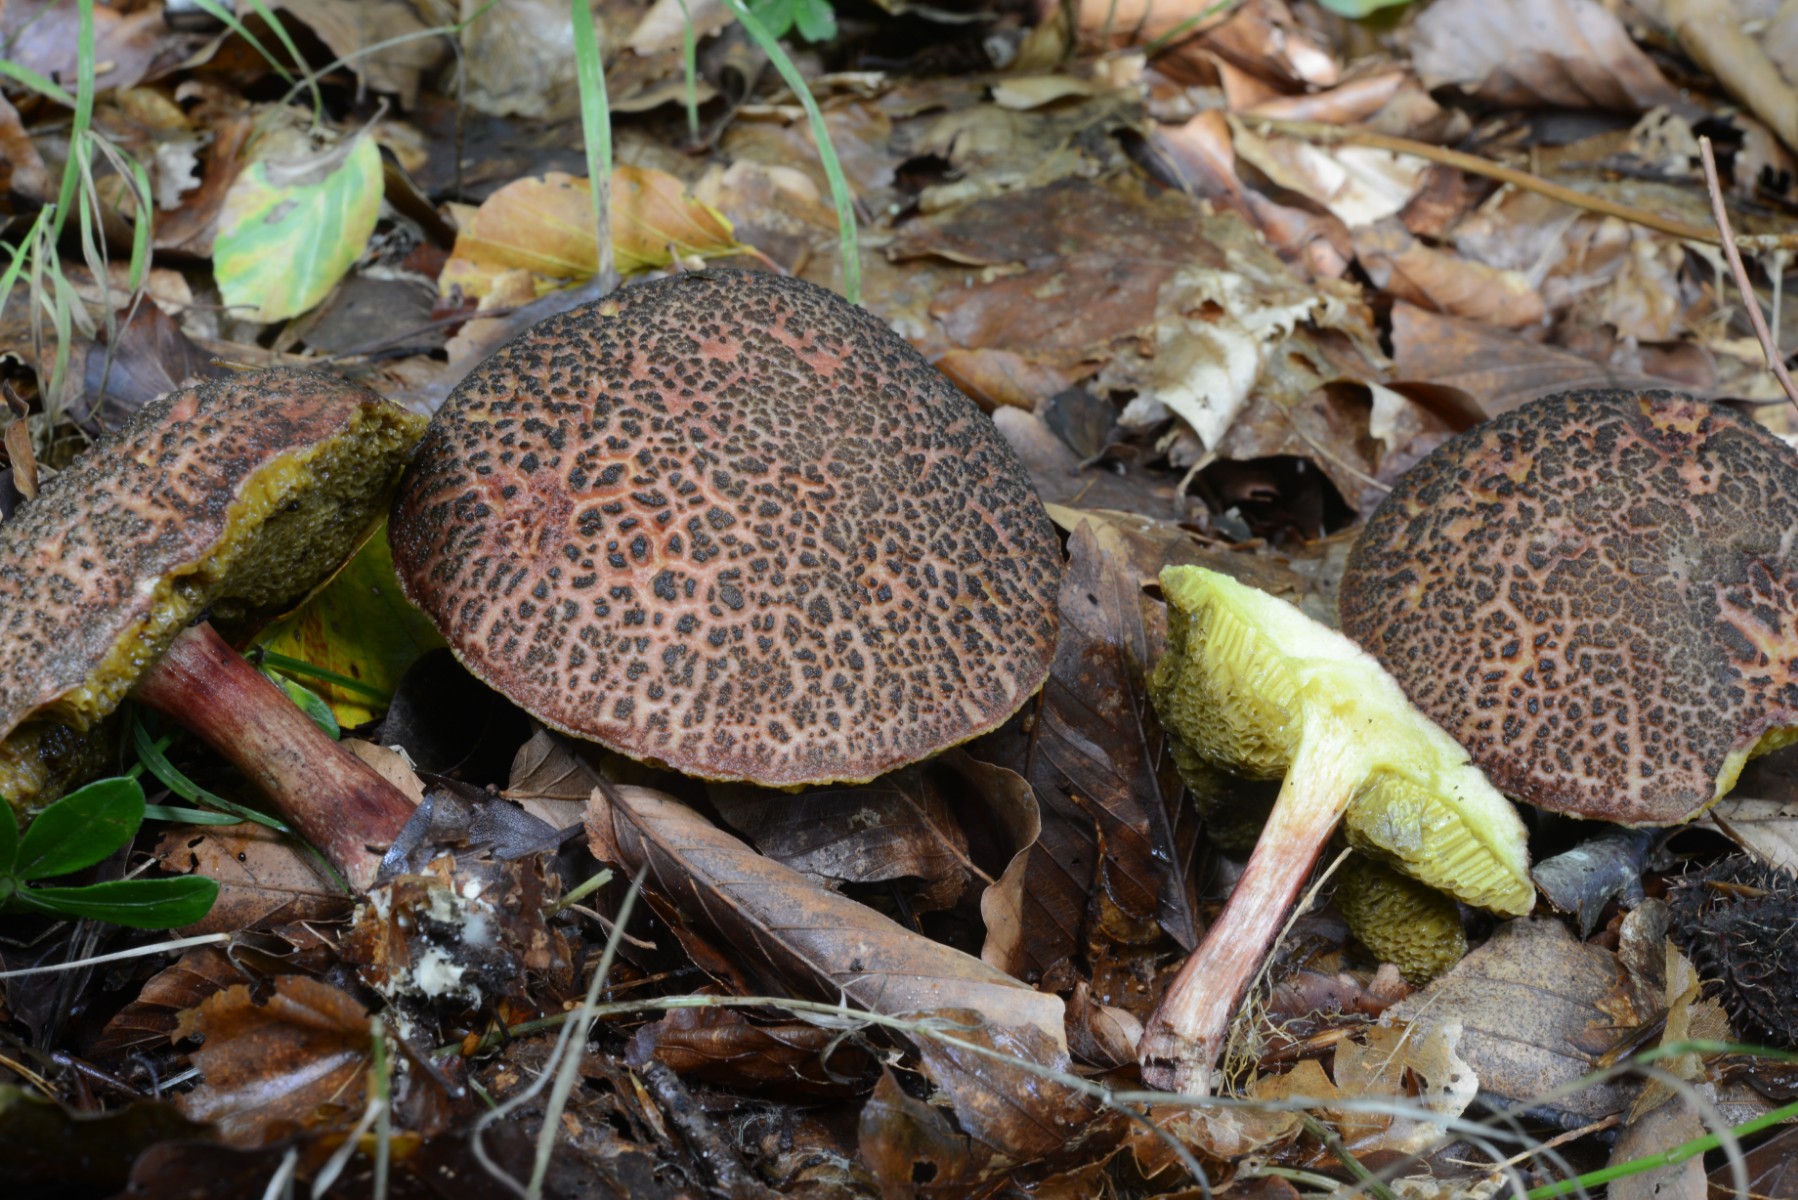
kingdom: Fungi
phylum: Basidiomycota
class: Agaricomycetes
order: Boletales
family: Boletaceae
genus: Xerocomellus
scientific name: Xerocomellus chrysenteron
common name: rødsprukken rørhat
